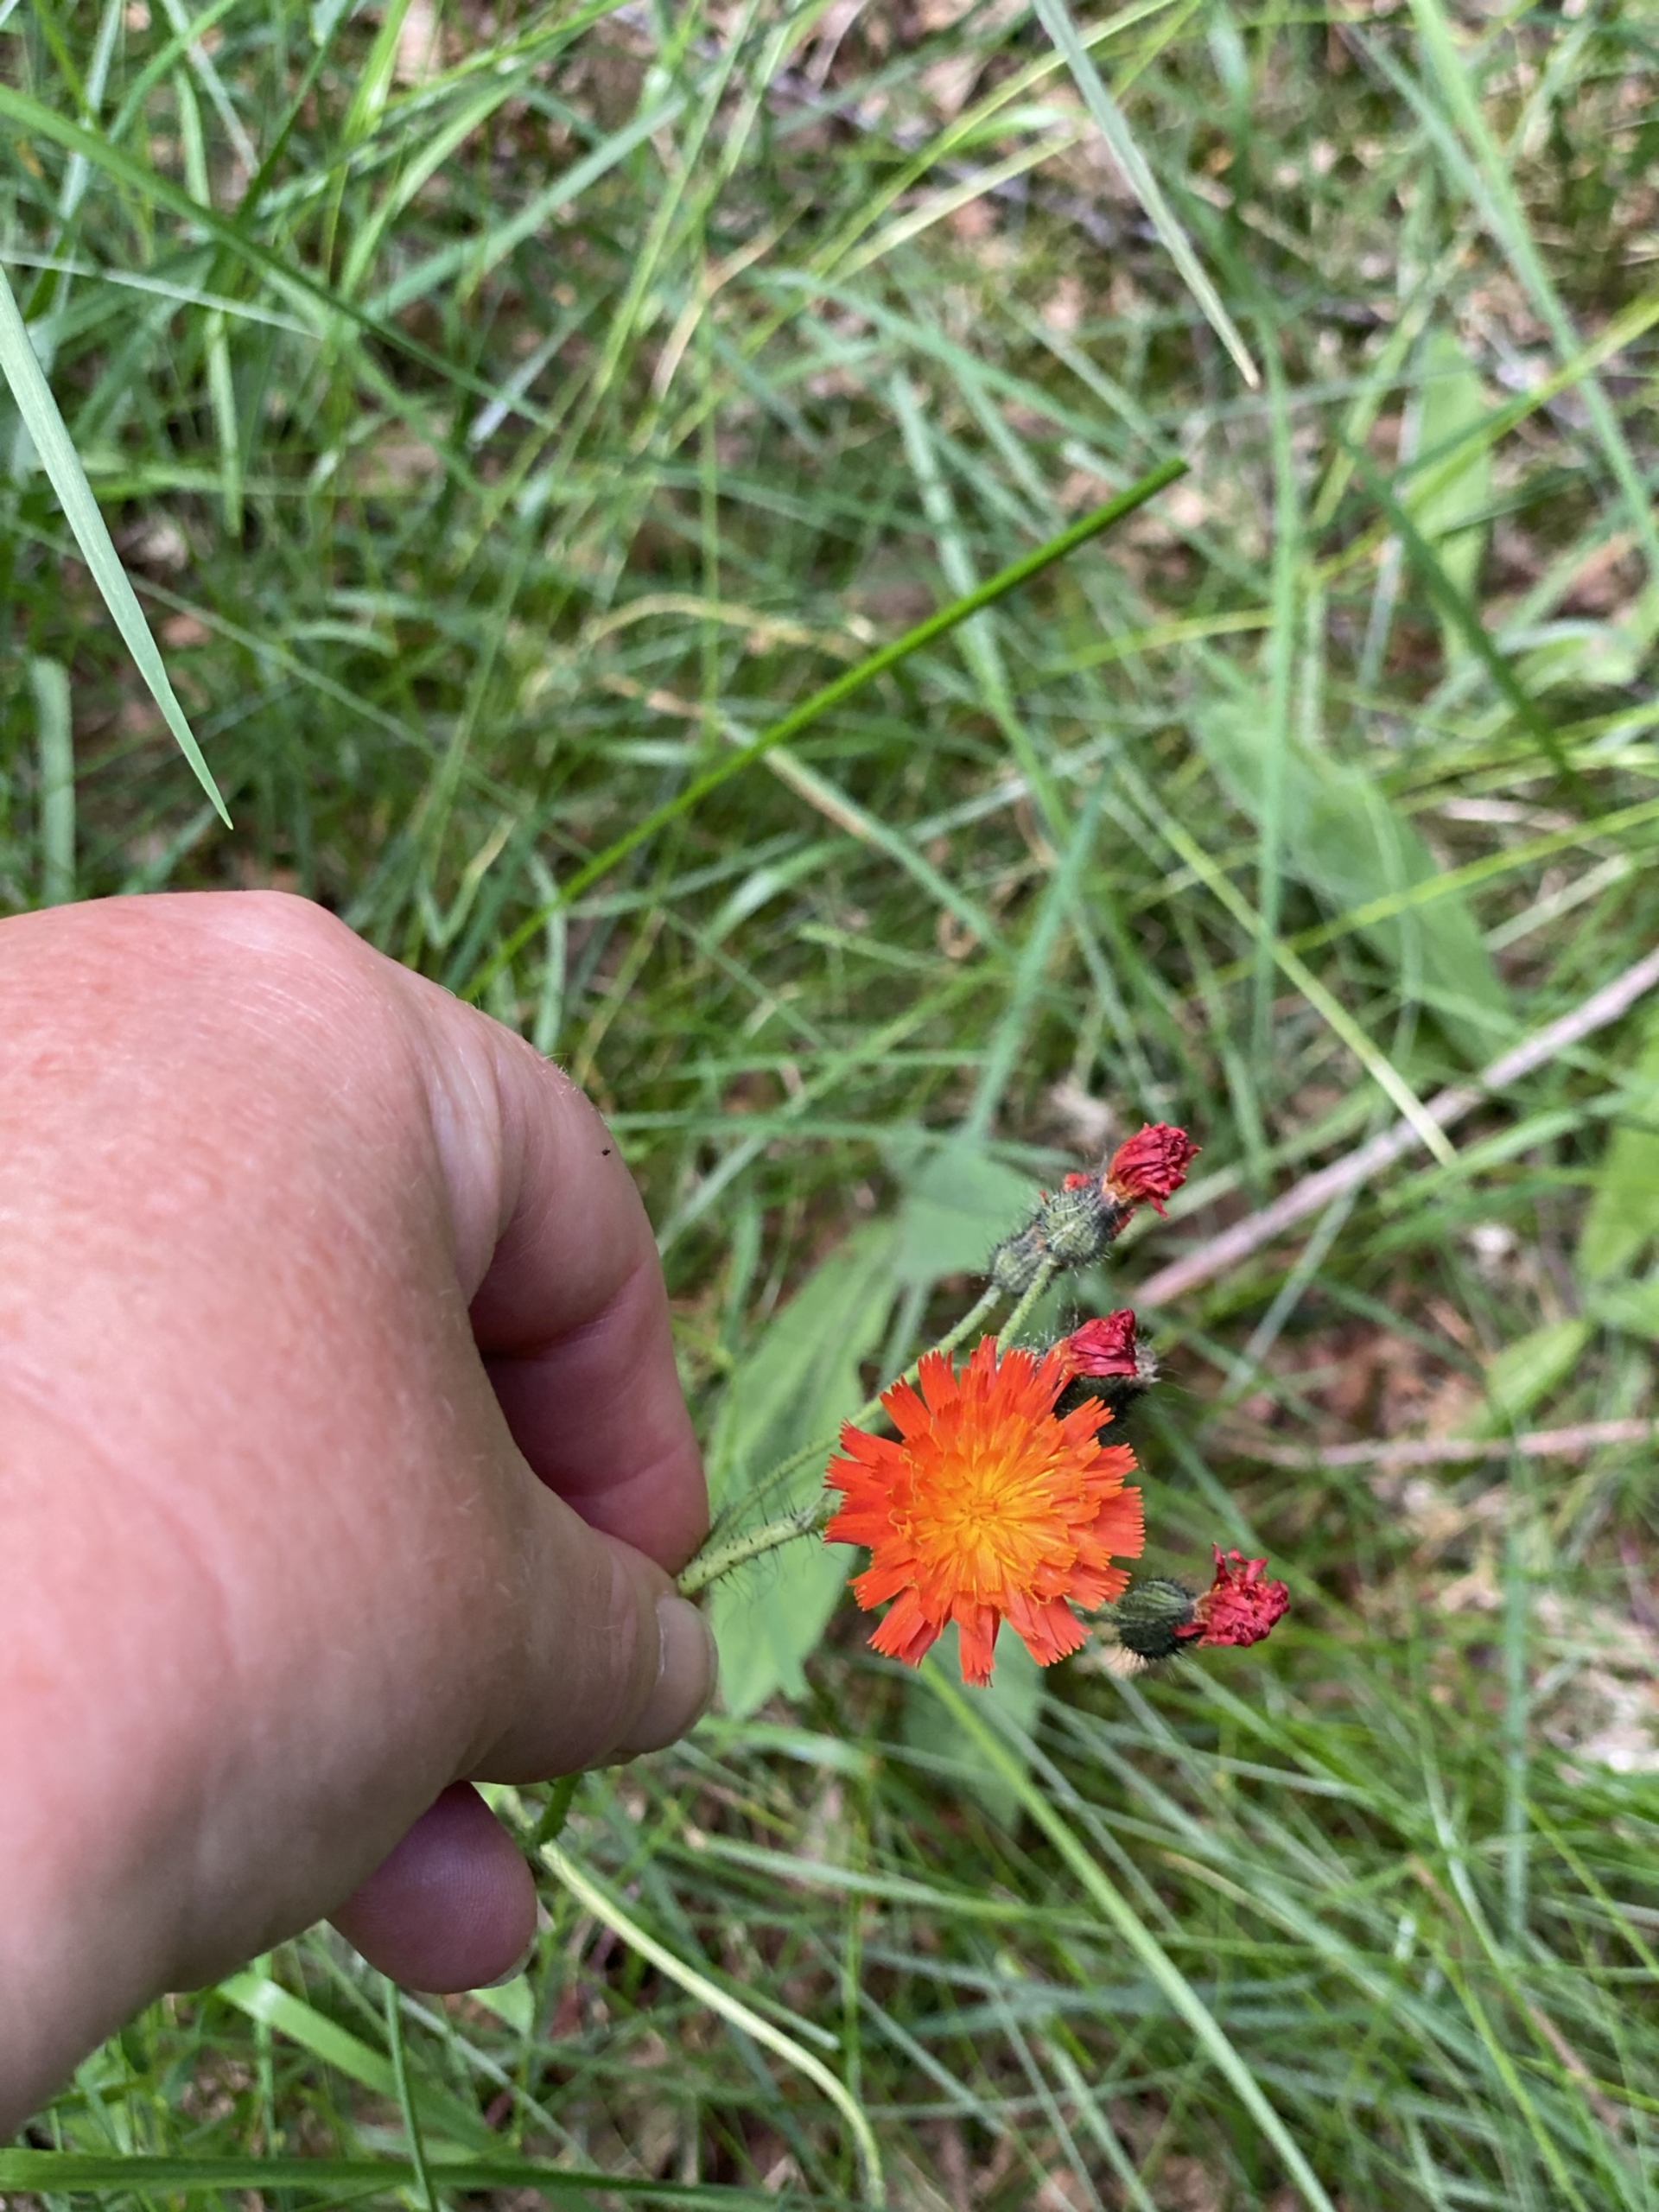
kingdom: Plantae
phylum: Tracheophyta
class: Magnoliopsida
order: Asterales
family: Asteraceae
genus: Pilosella
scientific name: Pilosella aurantiaca
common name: Pomerans-høgeurt
